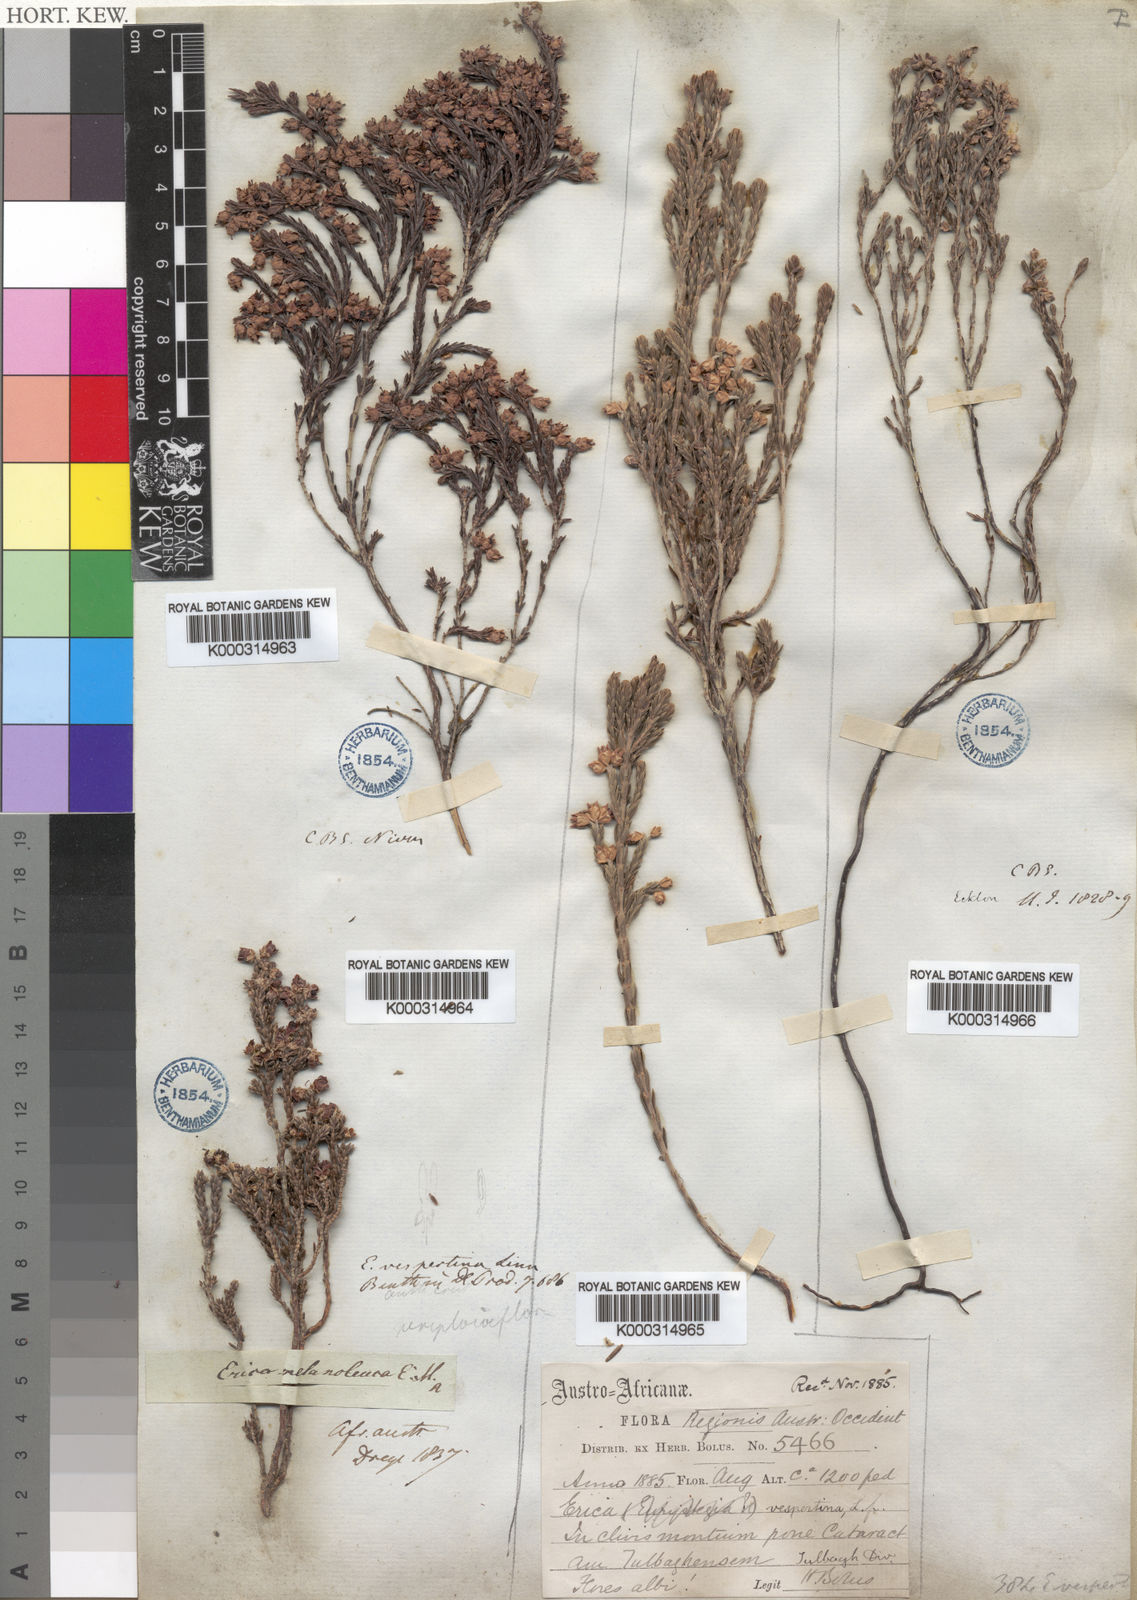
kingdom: Plantae
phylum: Tracheophyta
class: Magnoliopsida
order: Ericales
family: Ericaceae
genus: Erica
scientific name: Erica calycina
